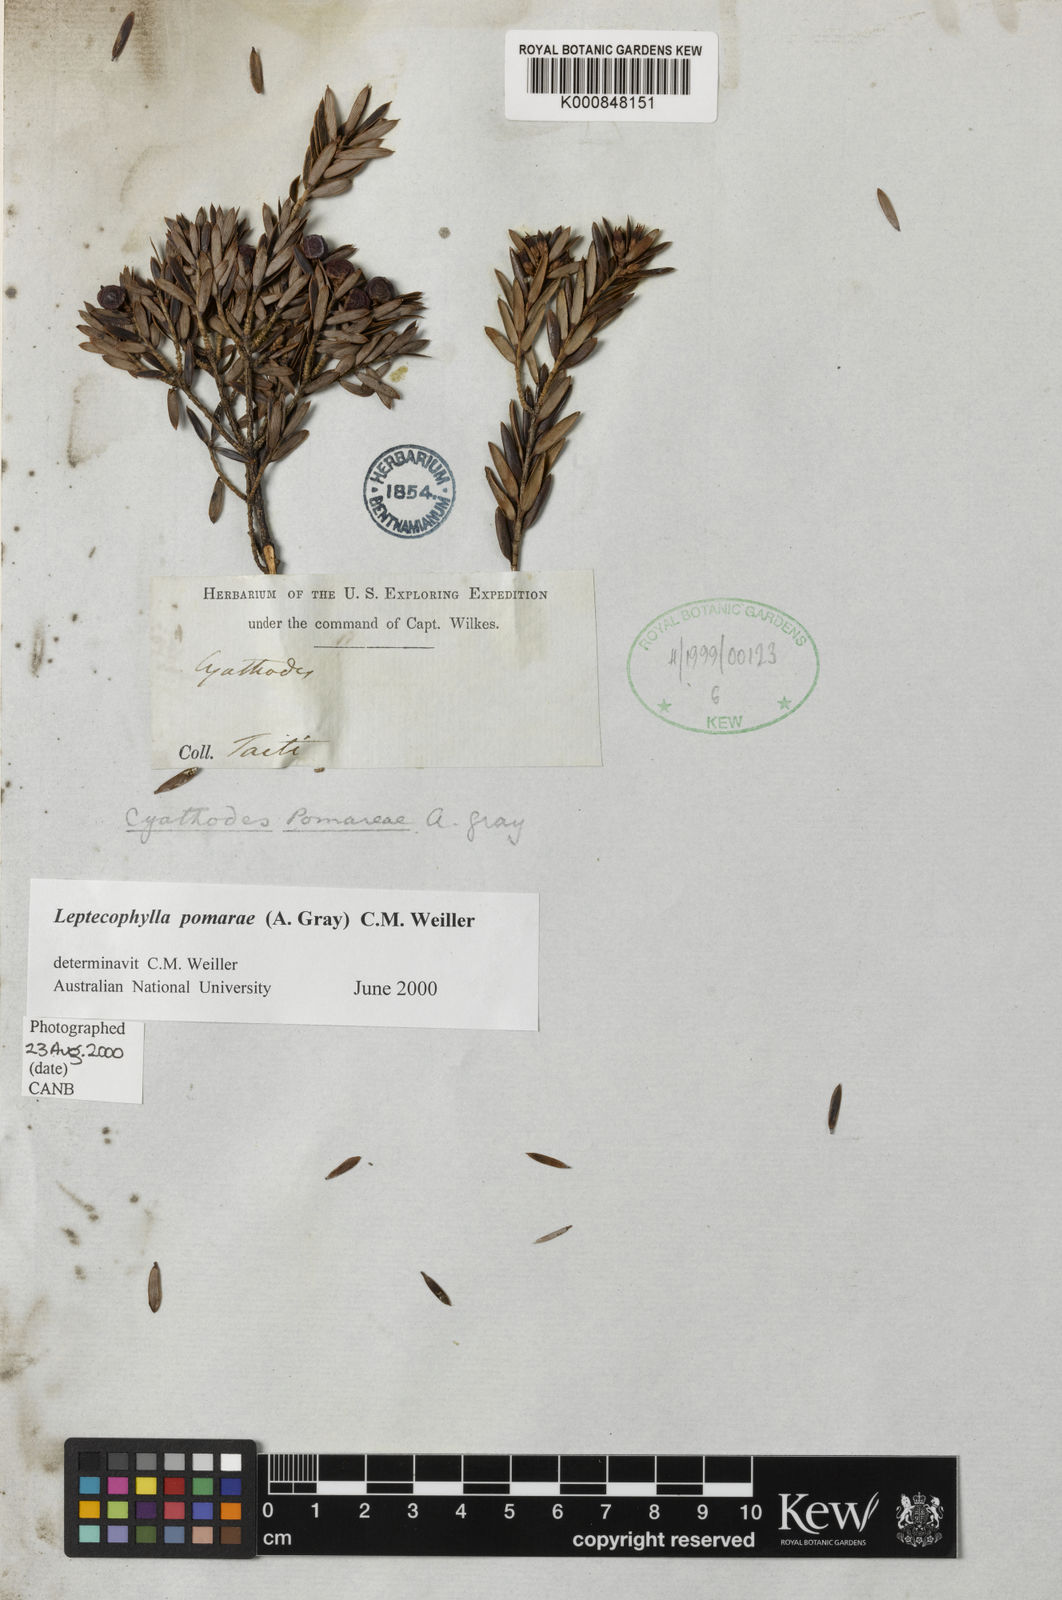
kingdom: Plantae
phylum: Tracheophyta
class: Magnoliopsida
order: Ericales
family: Ericaceae
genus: Cyathodes
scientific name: Cyathodes
